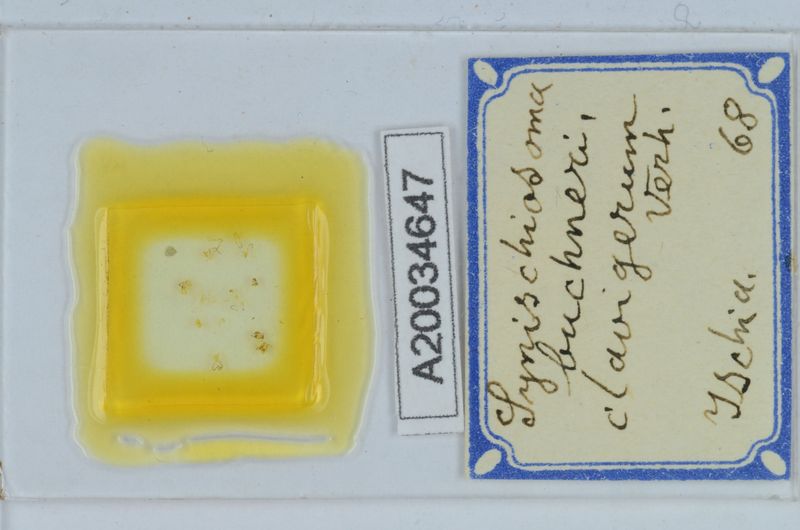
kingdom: Animalia
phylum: Arthropoda
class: Diplopoda
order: Chordeumatida
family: Craspedosomatidae
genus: Synischiosoma
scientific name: Synischiosoma buchneri
